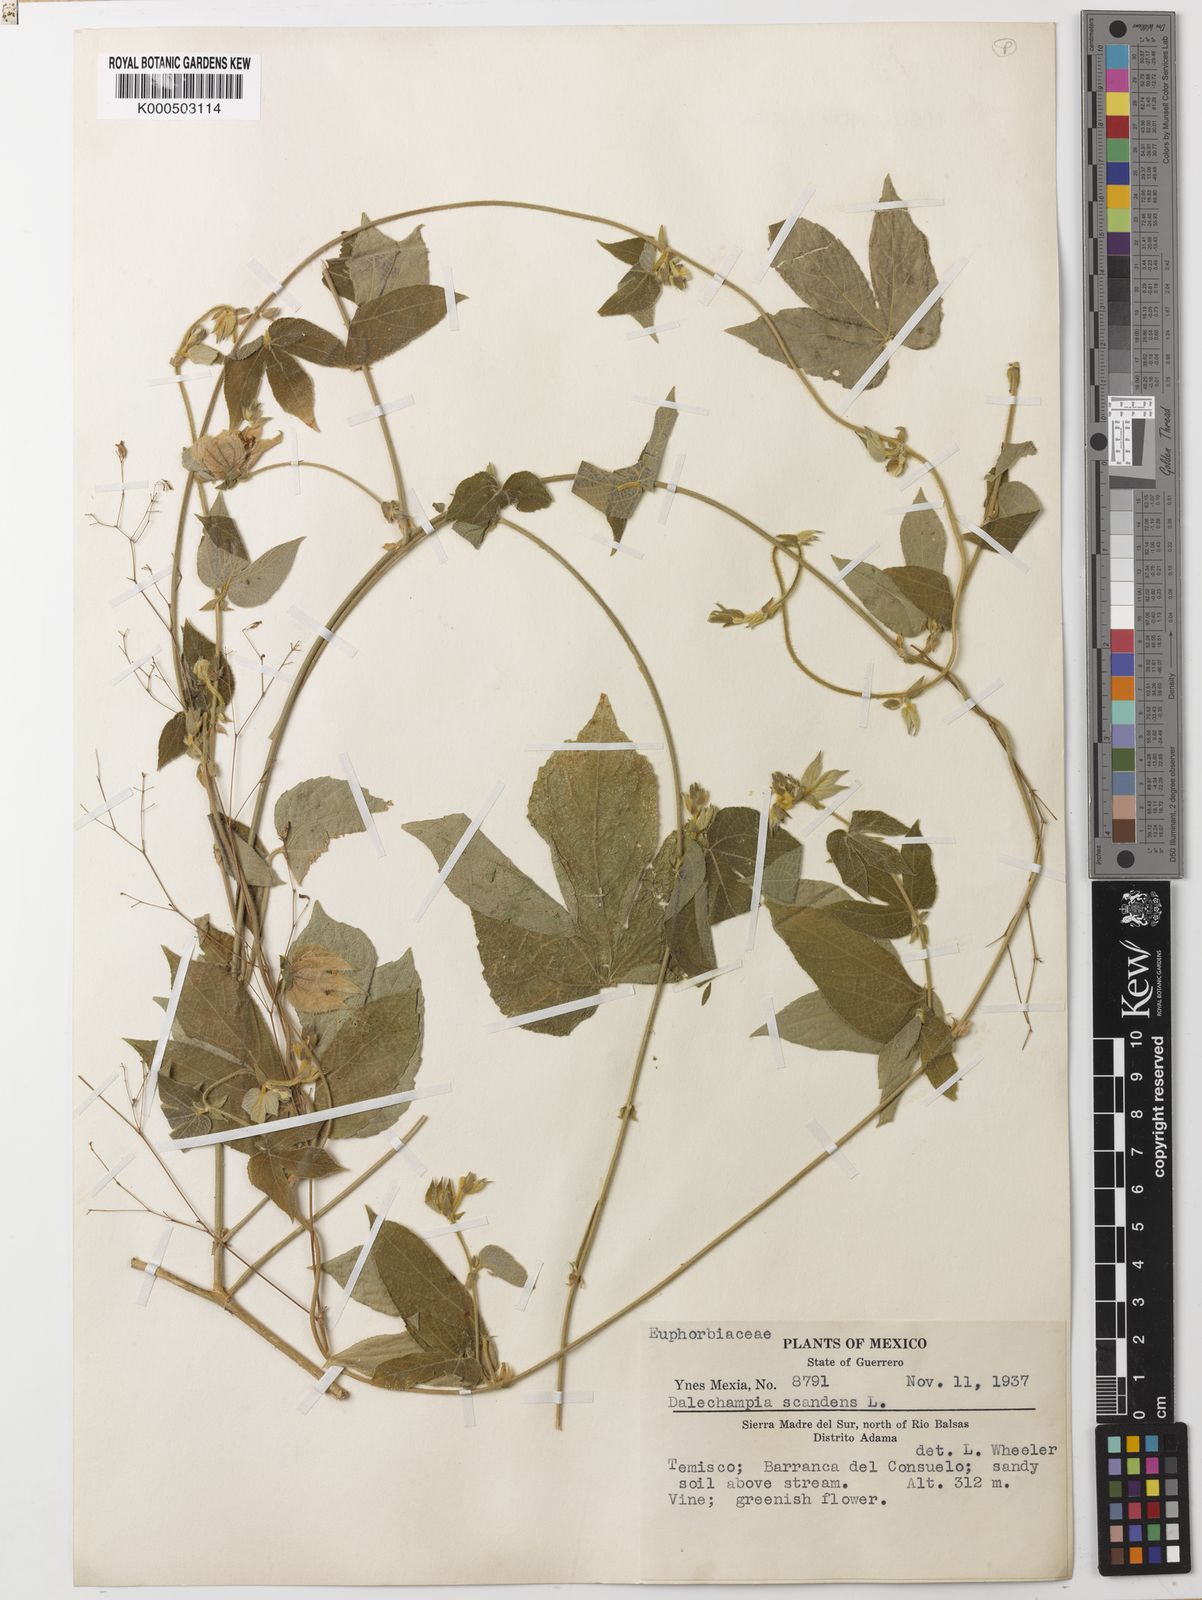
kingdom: Plantae
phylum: Tracheophyta
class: Magnoliopsida
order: Malpighiales
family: Euphorbiaceae
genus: Dalechampia
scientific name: Dalechampia scandens
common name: Spurgecreeper
